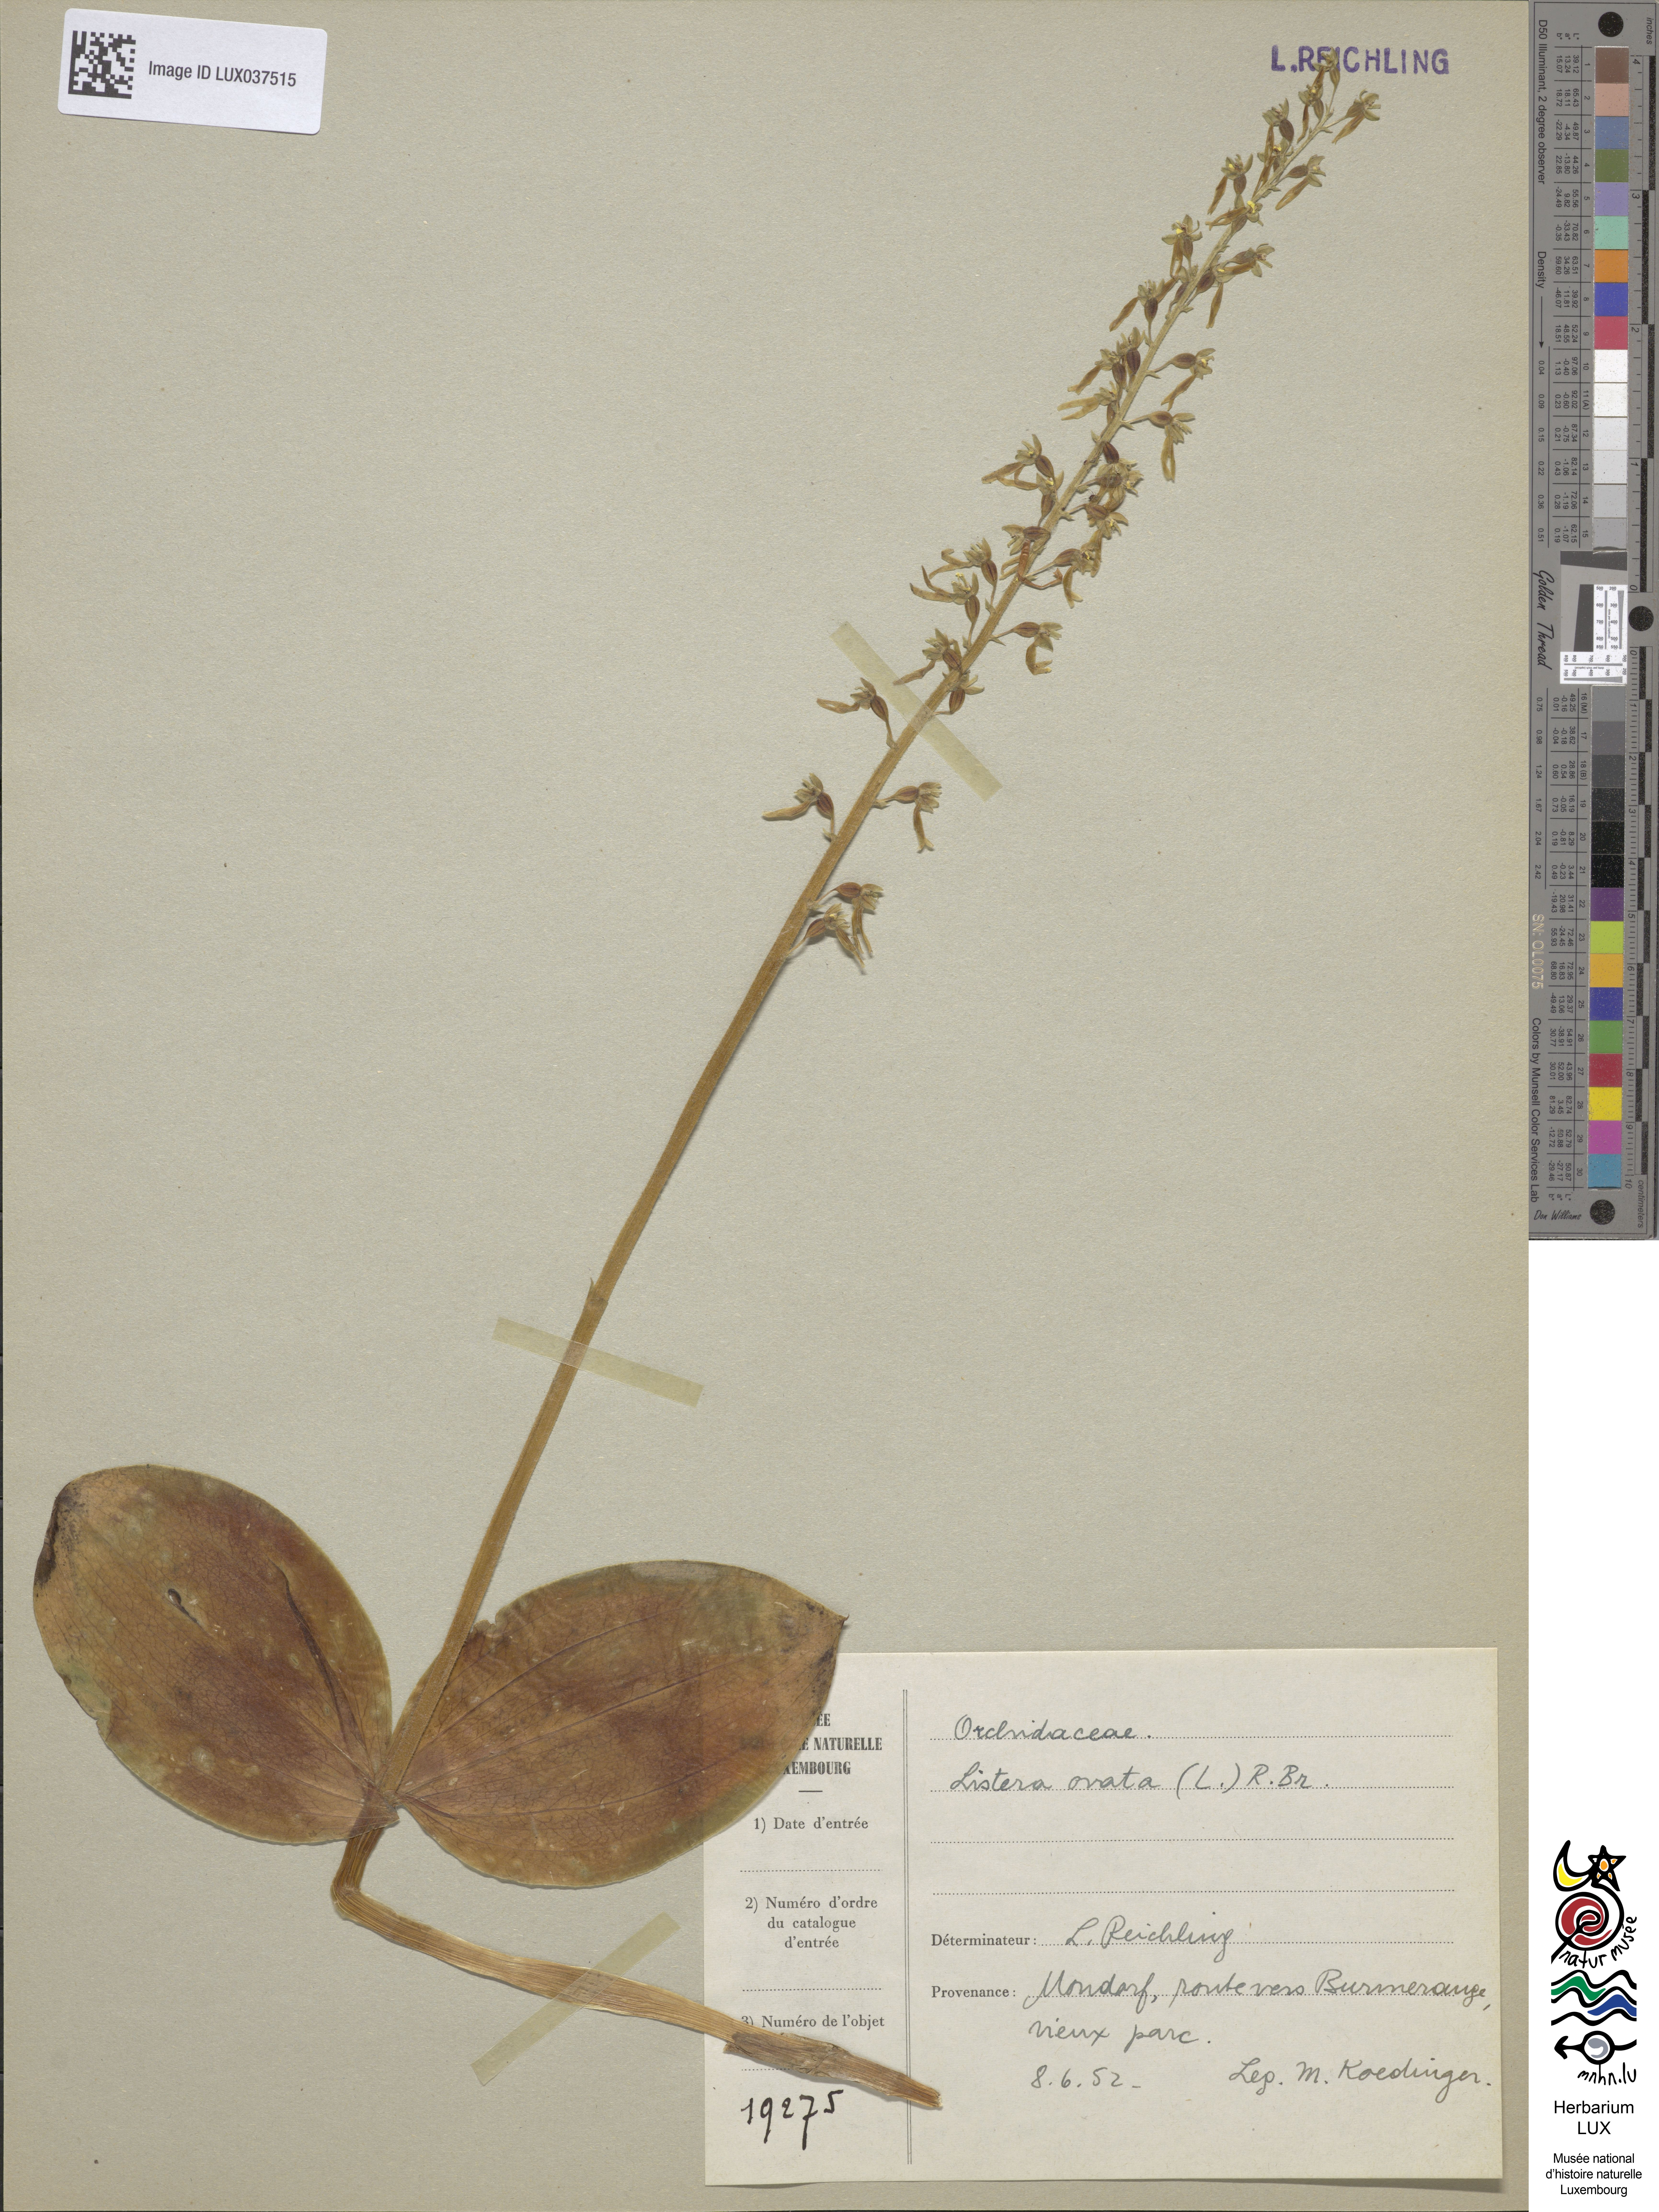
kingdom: Plantae
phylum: Tracheophyta
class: Liliopsida
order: Asparagales
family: Orchidaceae
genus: Neottia
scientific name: Neottia ovata
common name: Common twayblade
